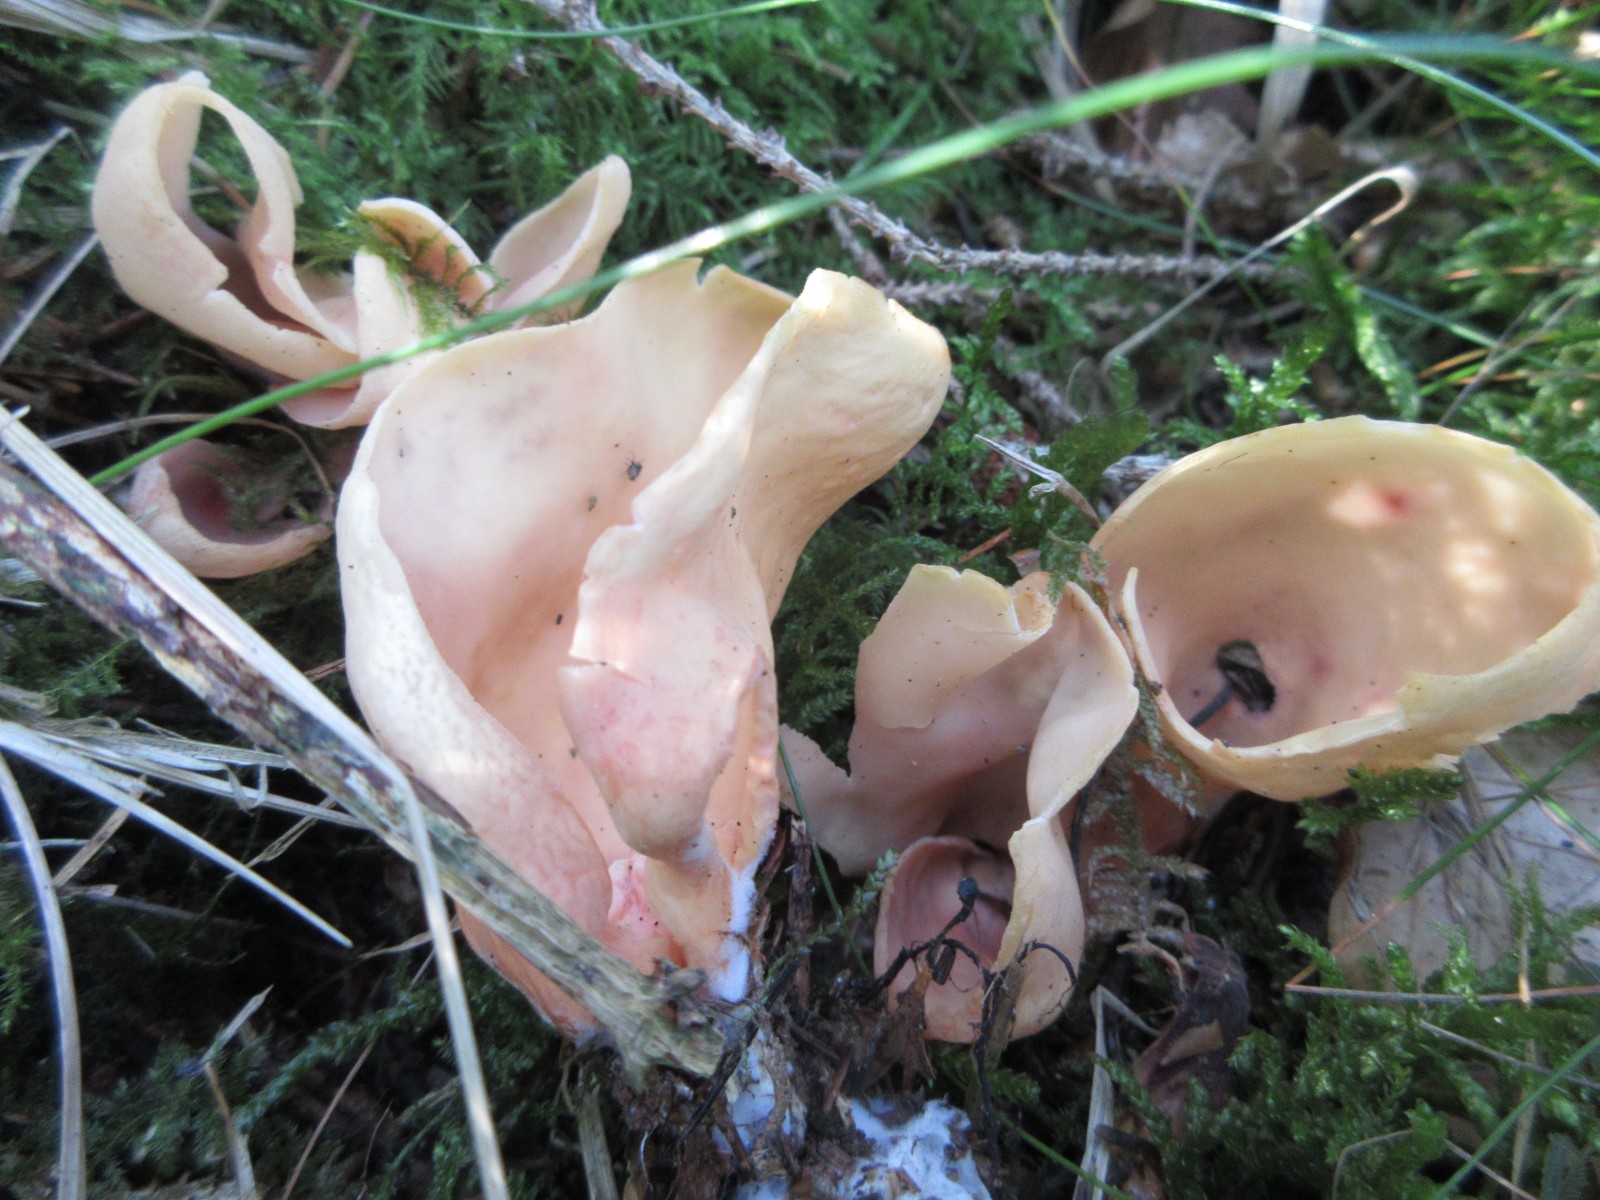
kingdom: Fungi
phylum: Ascomycota
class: Pezizomycetes
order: Pezizales
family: Otideaceae
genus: Otidea
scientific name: Otidea onotica
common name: æsel-ørebæger
